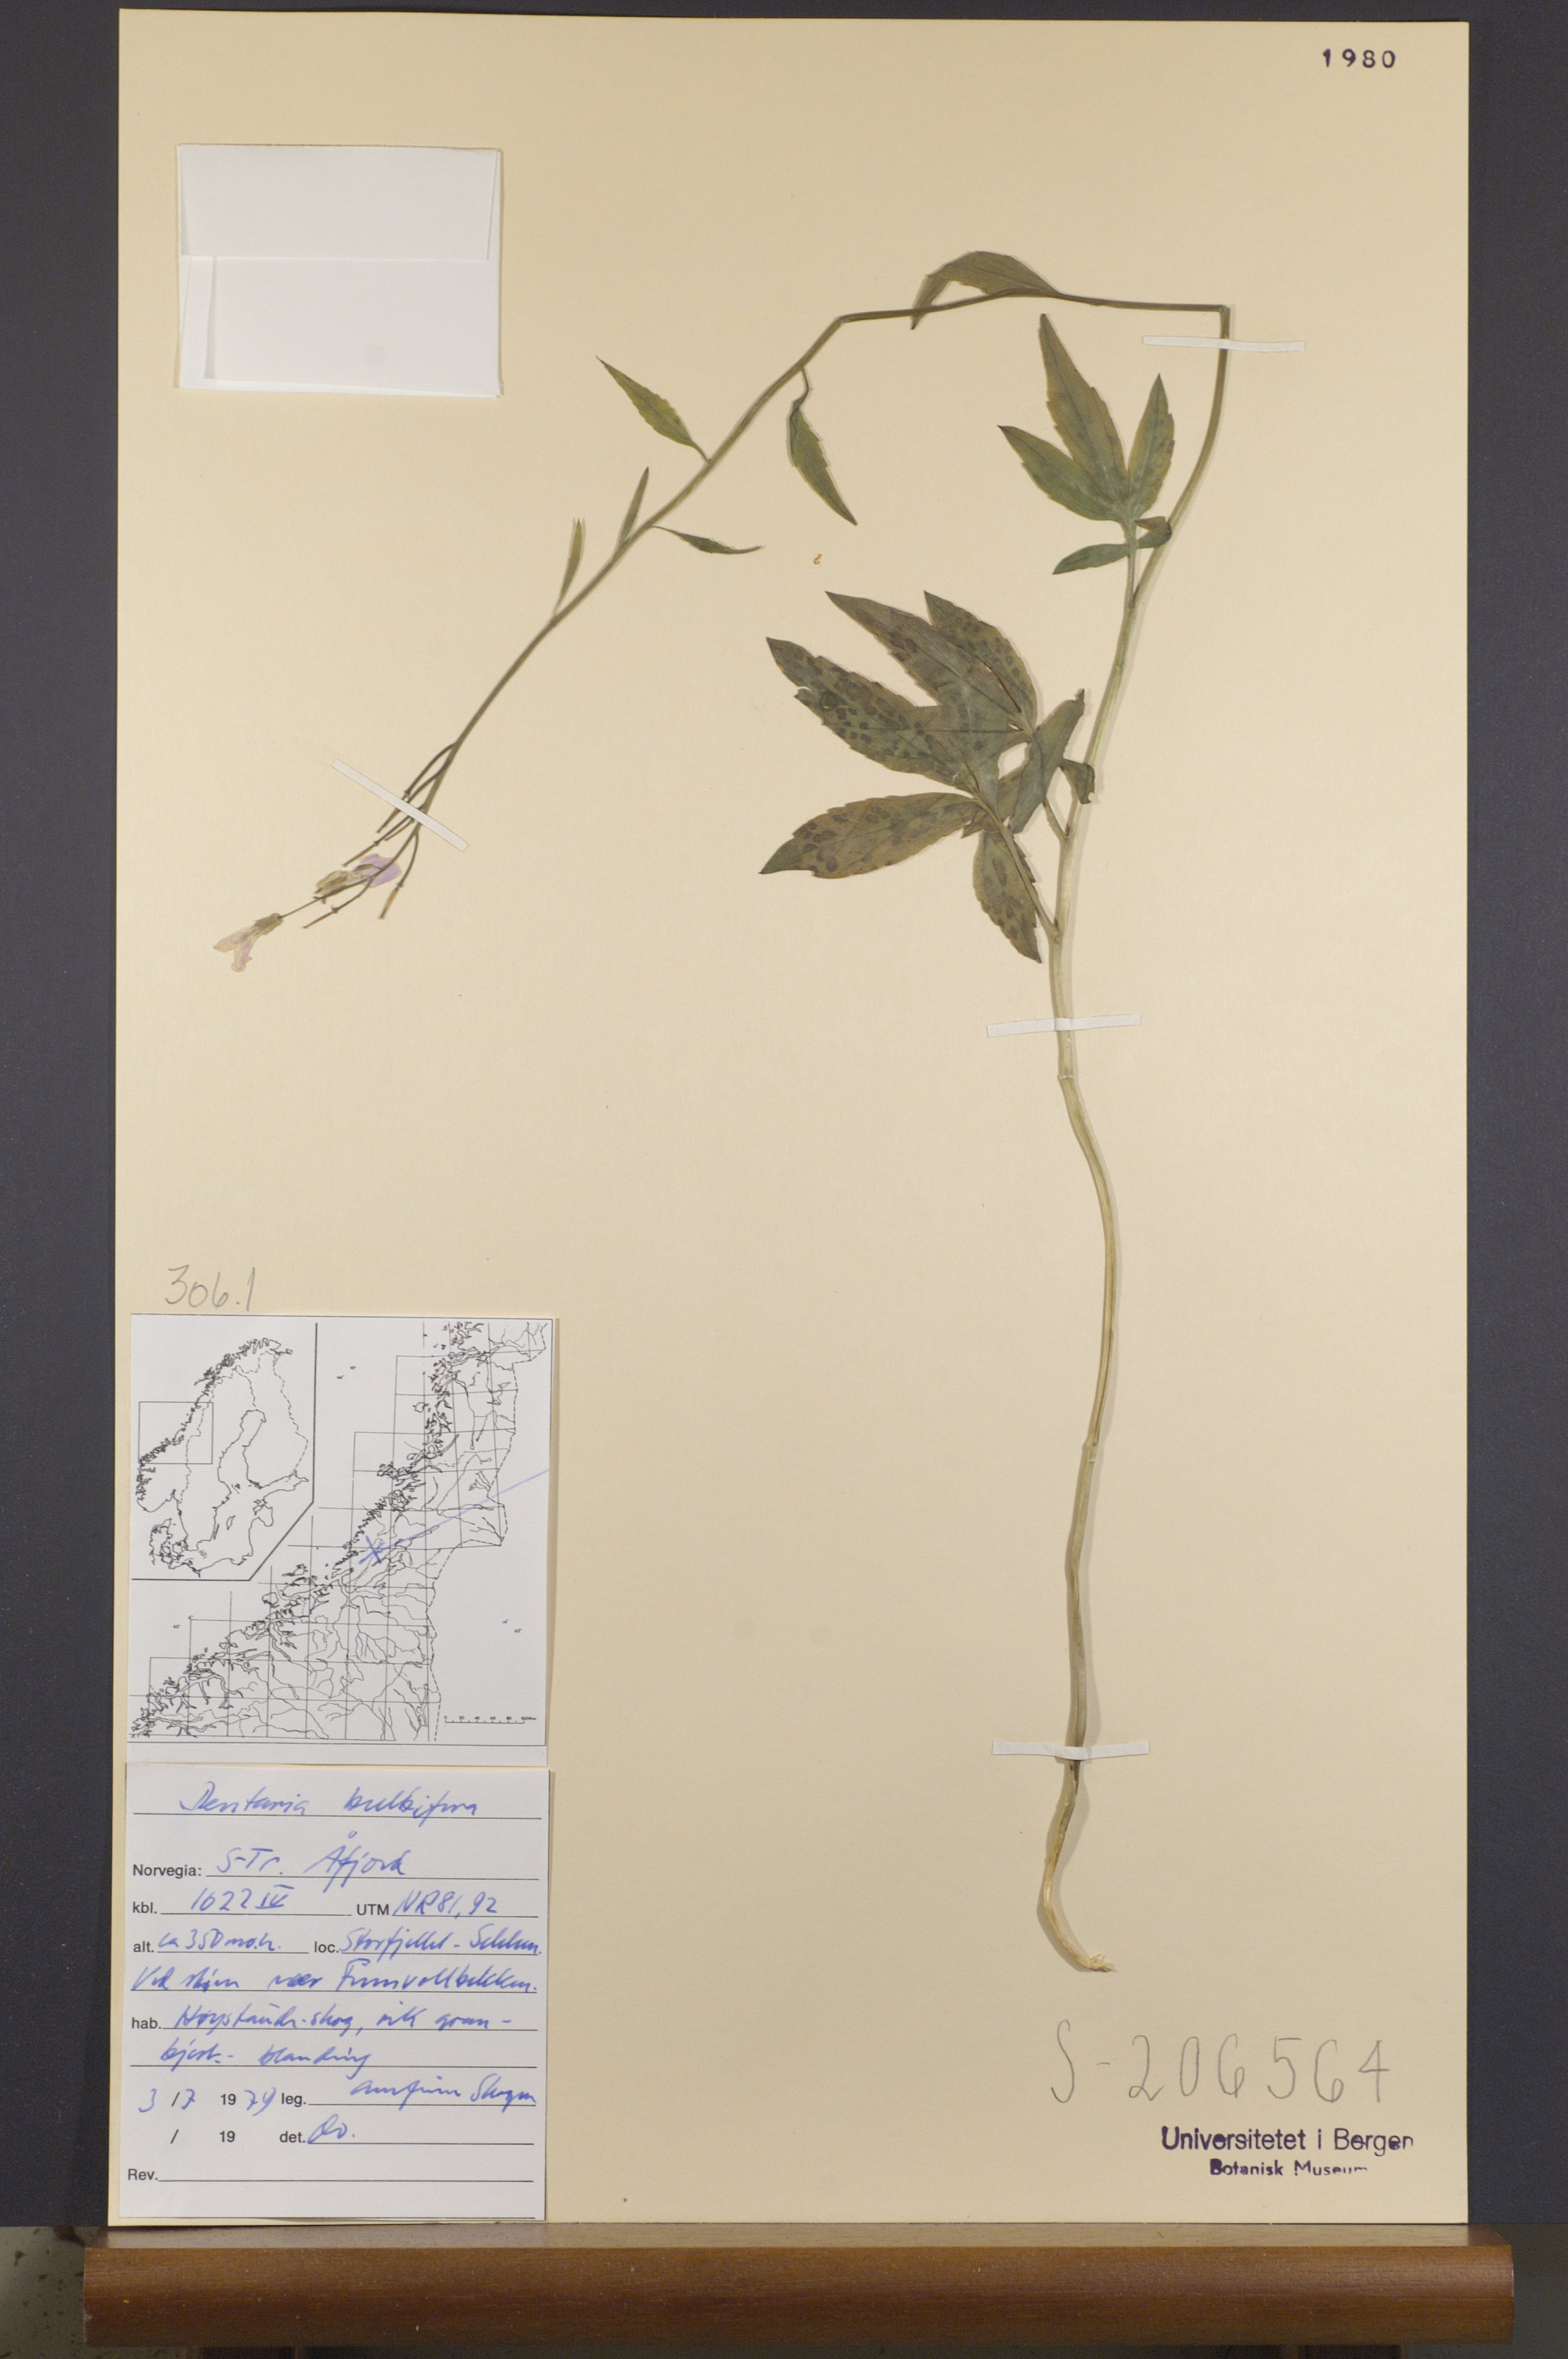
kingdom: Plantae
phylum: Tracheophyta
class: Magnoliopsida
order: Brassicales
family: Brassicaceae
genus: Cardamine
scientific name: Cardamine bulbifera
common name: Coralroot bittercress
